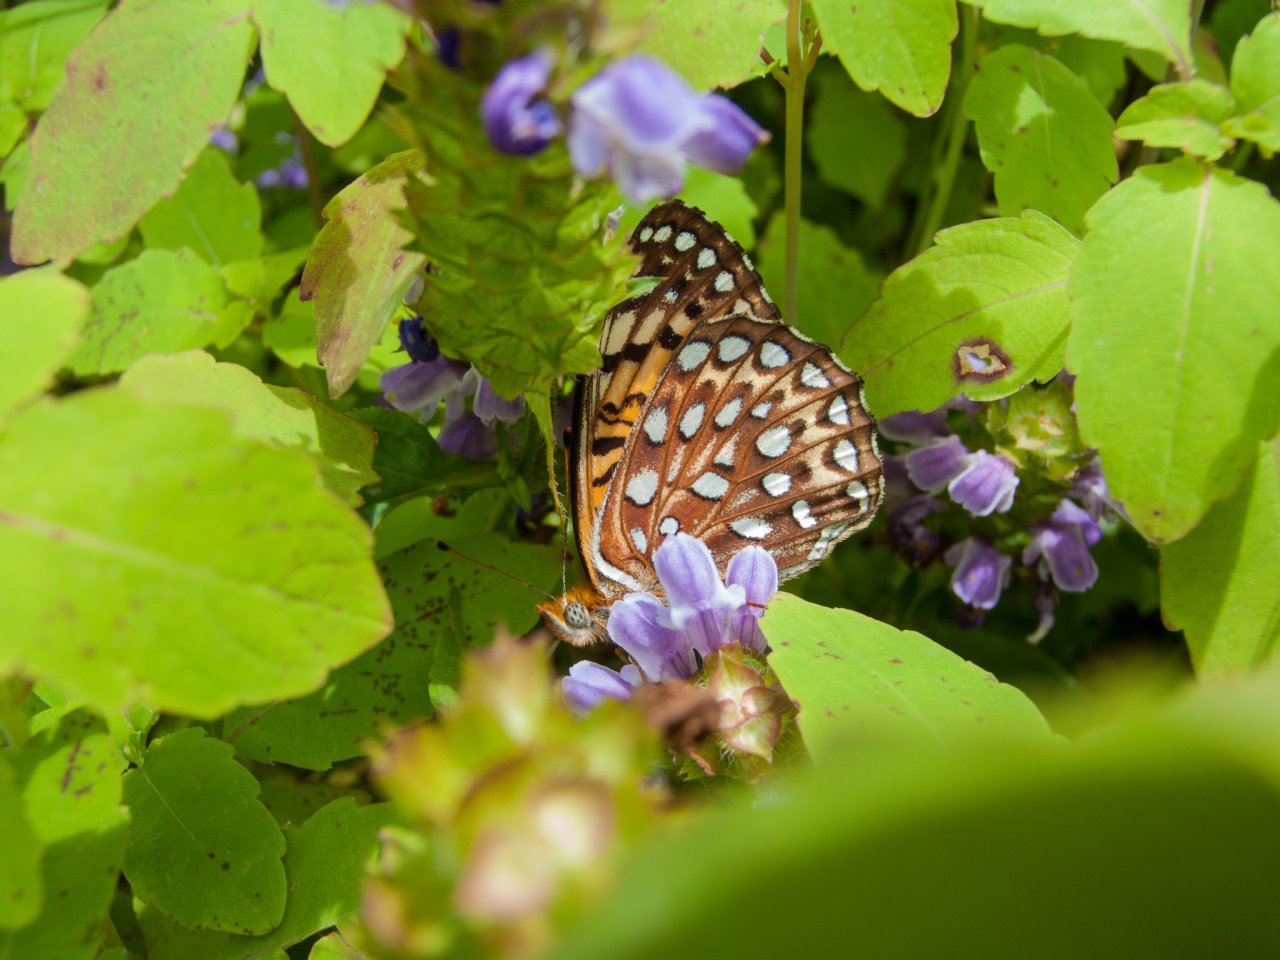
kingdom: Animalia
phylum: Arthropoda
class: Insecta
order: Lepidoptera
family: Nymphalidae
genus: Speyeria
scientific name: Speyeria aphrodite
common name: Aphrodite Fritillary
